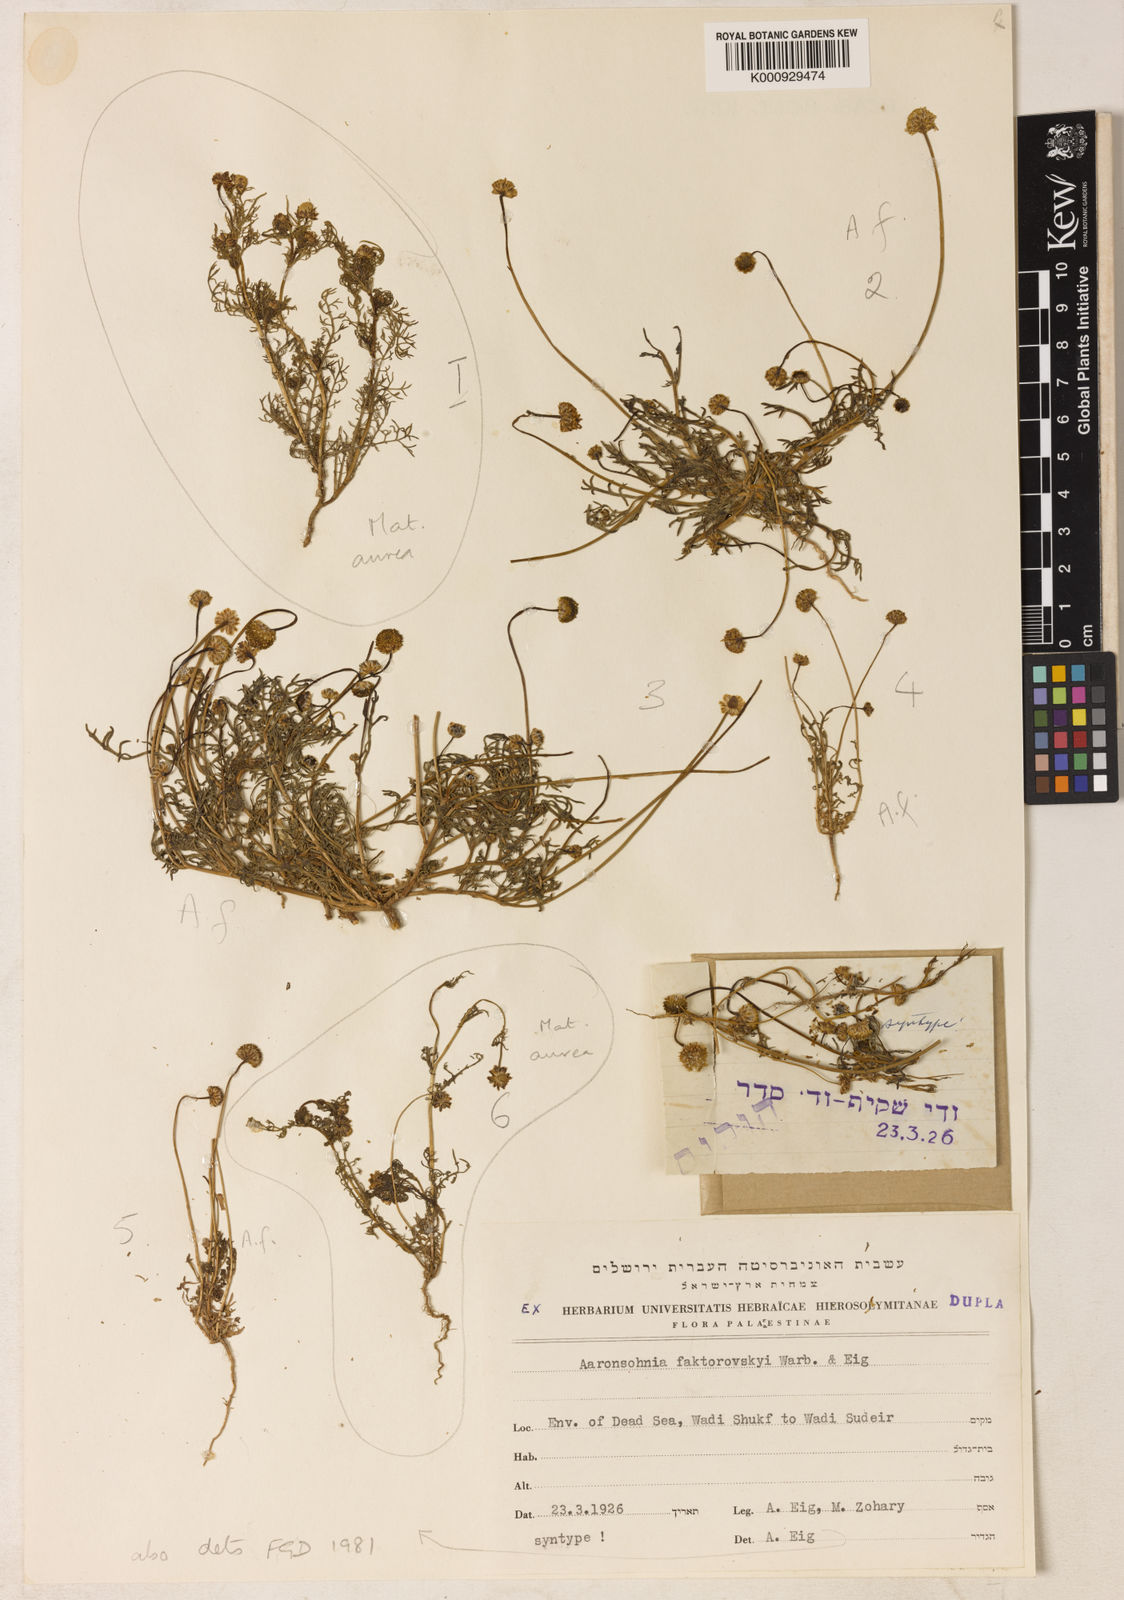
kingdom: Plantae
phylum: Tracheophyta
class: Magnoliopsida
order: Asterales
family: Asteraceae
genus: Otoglyphis
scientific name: Otoglyphis factorovskyi
